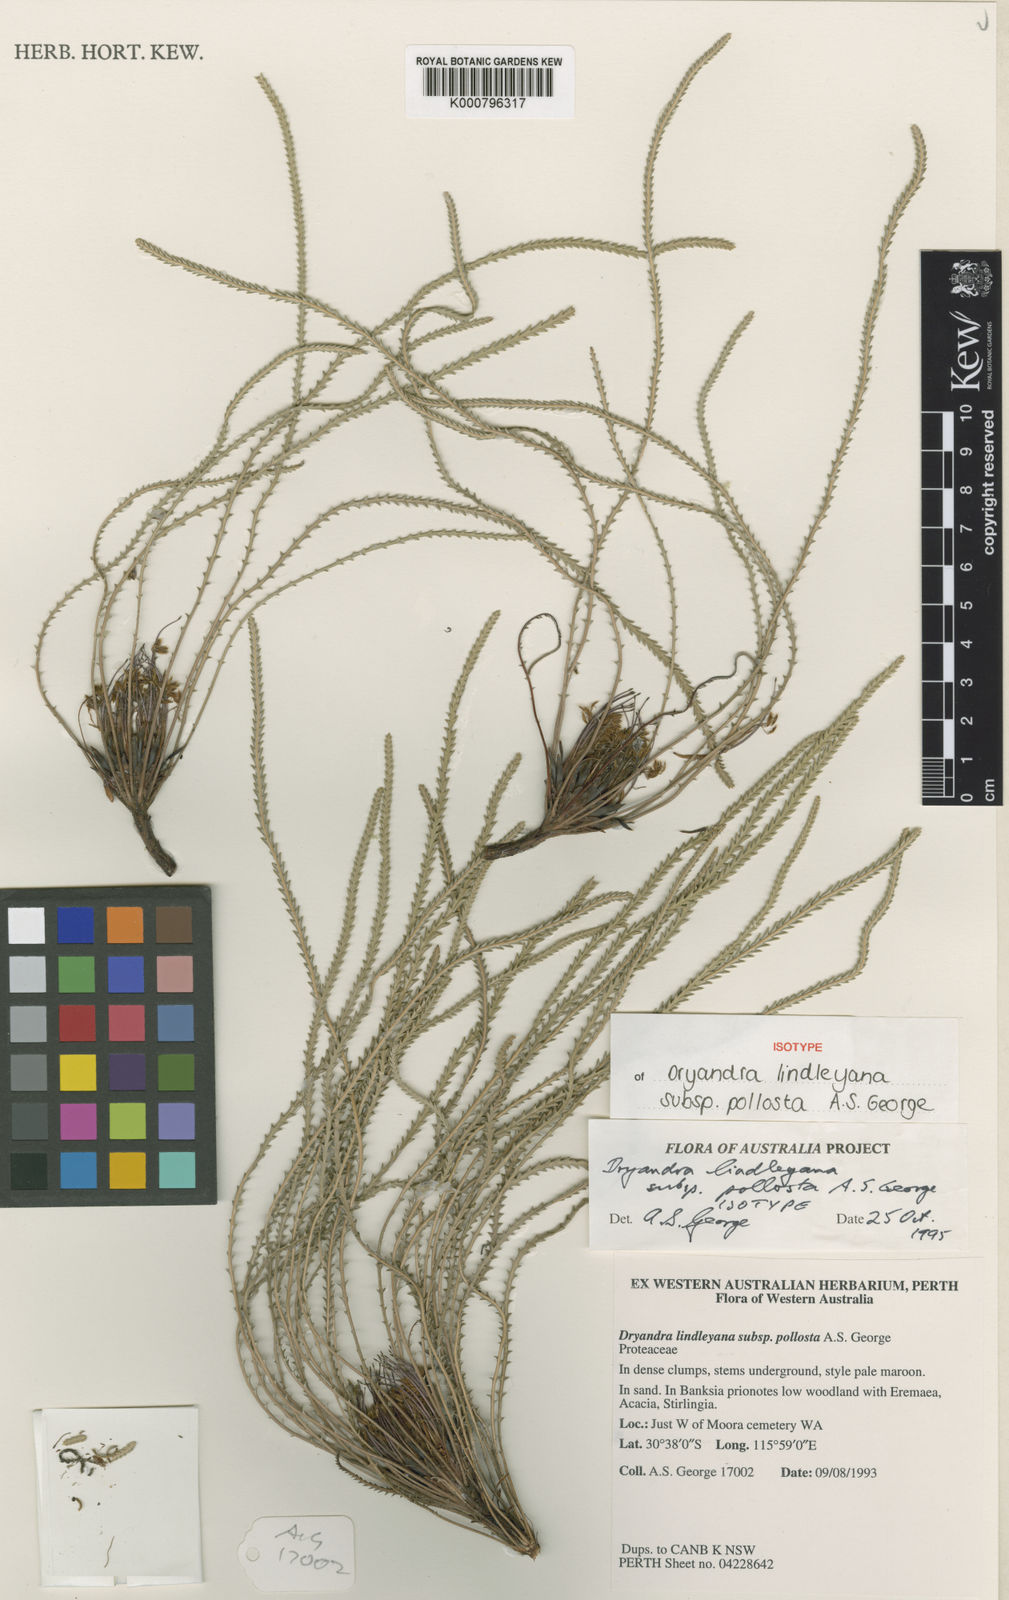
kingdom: Plantae
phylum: Tracheophyta
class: Magnoliopsida
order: Proteales
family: Proteaceae
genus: Banksia
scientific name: Banksia dallanneyi
